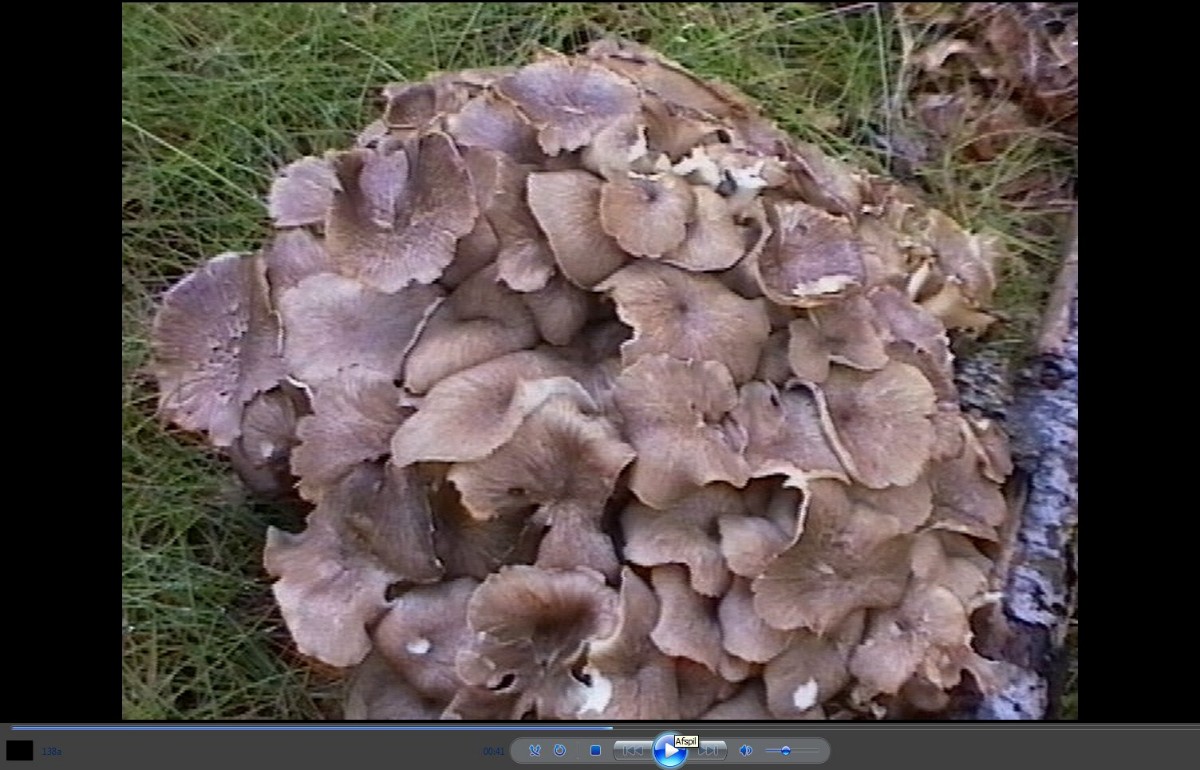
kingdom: Fungi
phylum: Basidiomycota
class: Agaricomycetes
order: Polyporales
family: Polyporaceae
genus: Polyporus
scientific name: Polyporus umbellatus
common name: skærmformet stilkporesvamp
